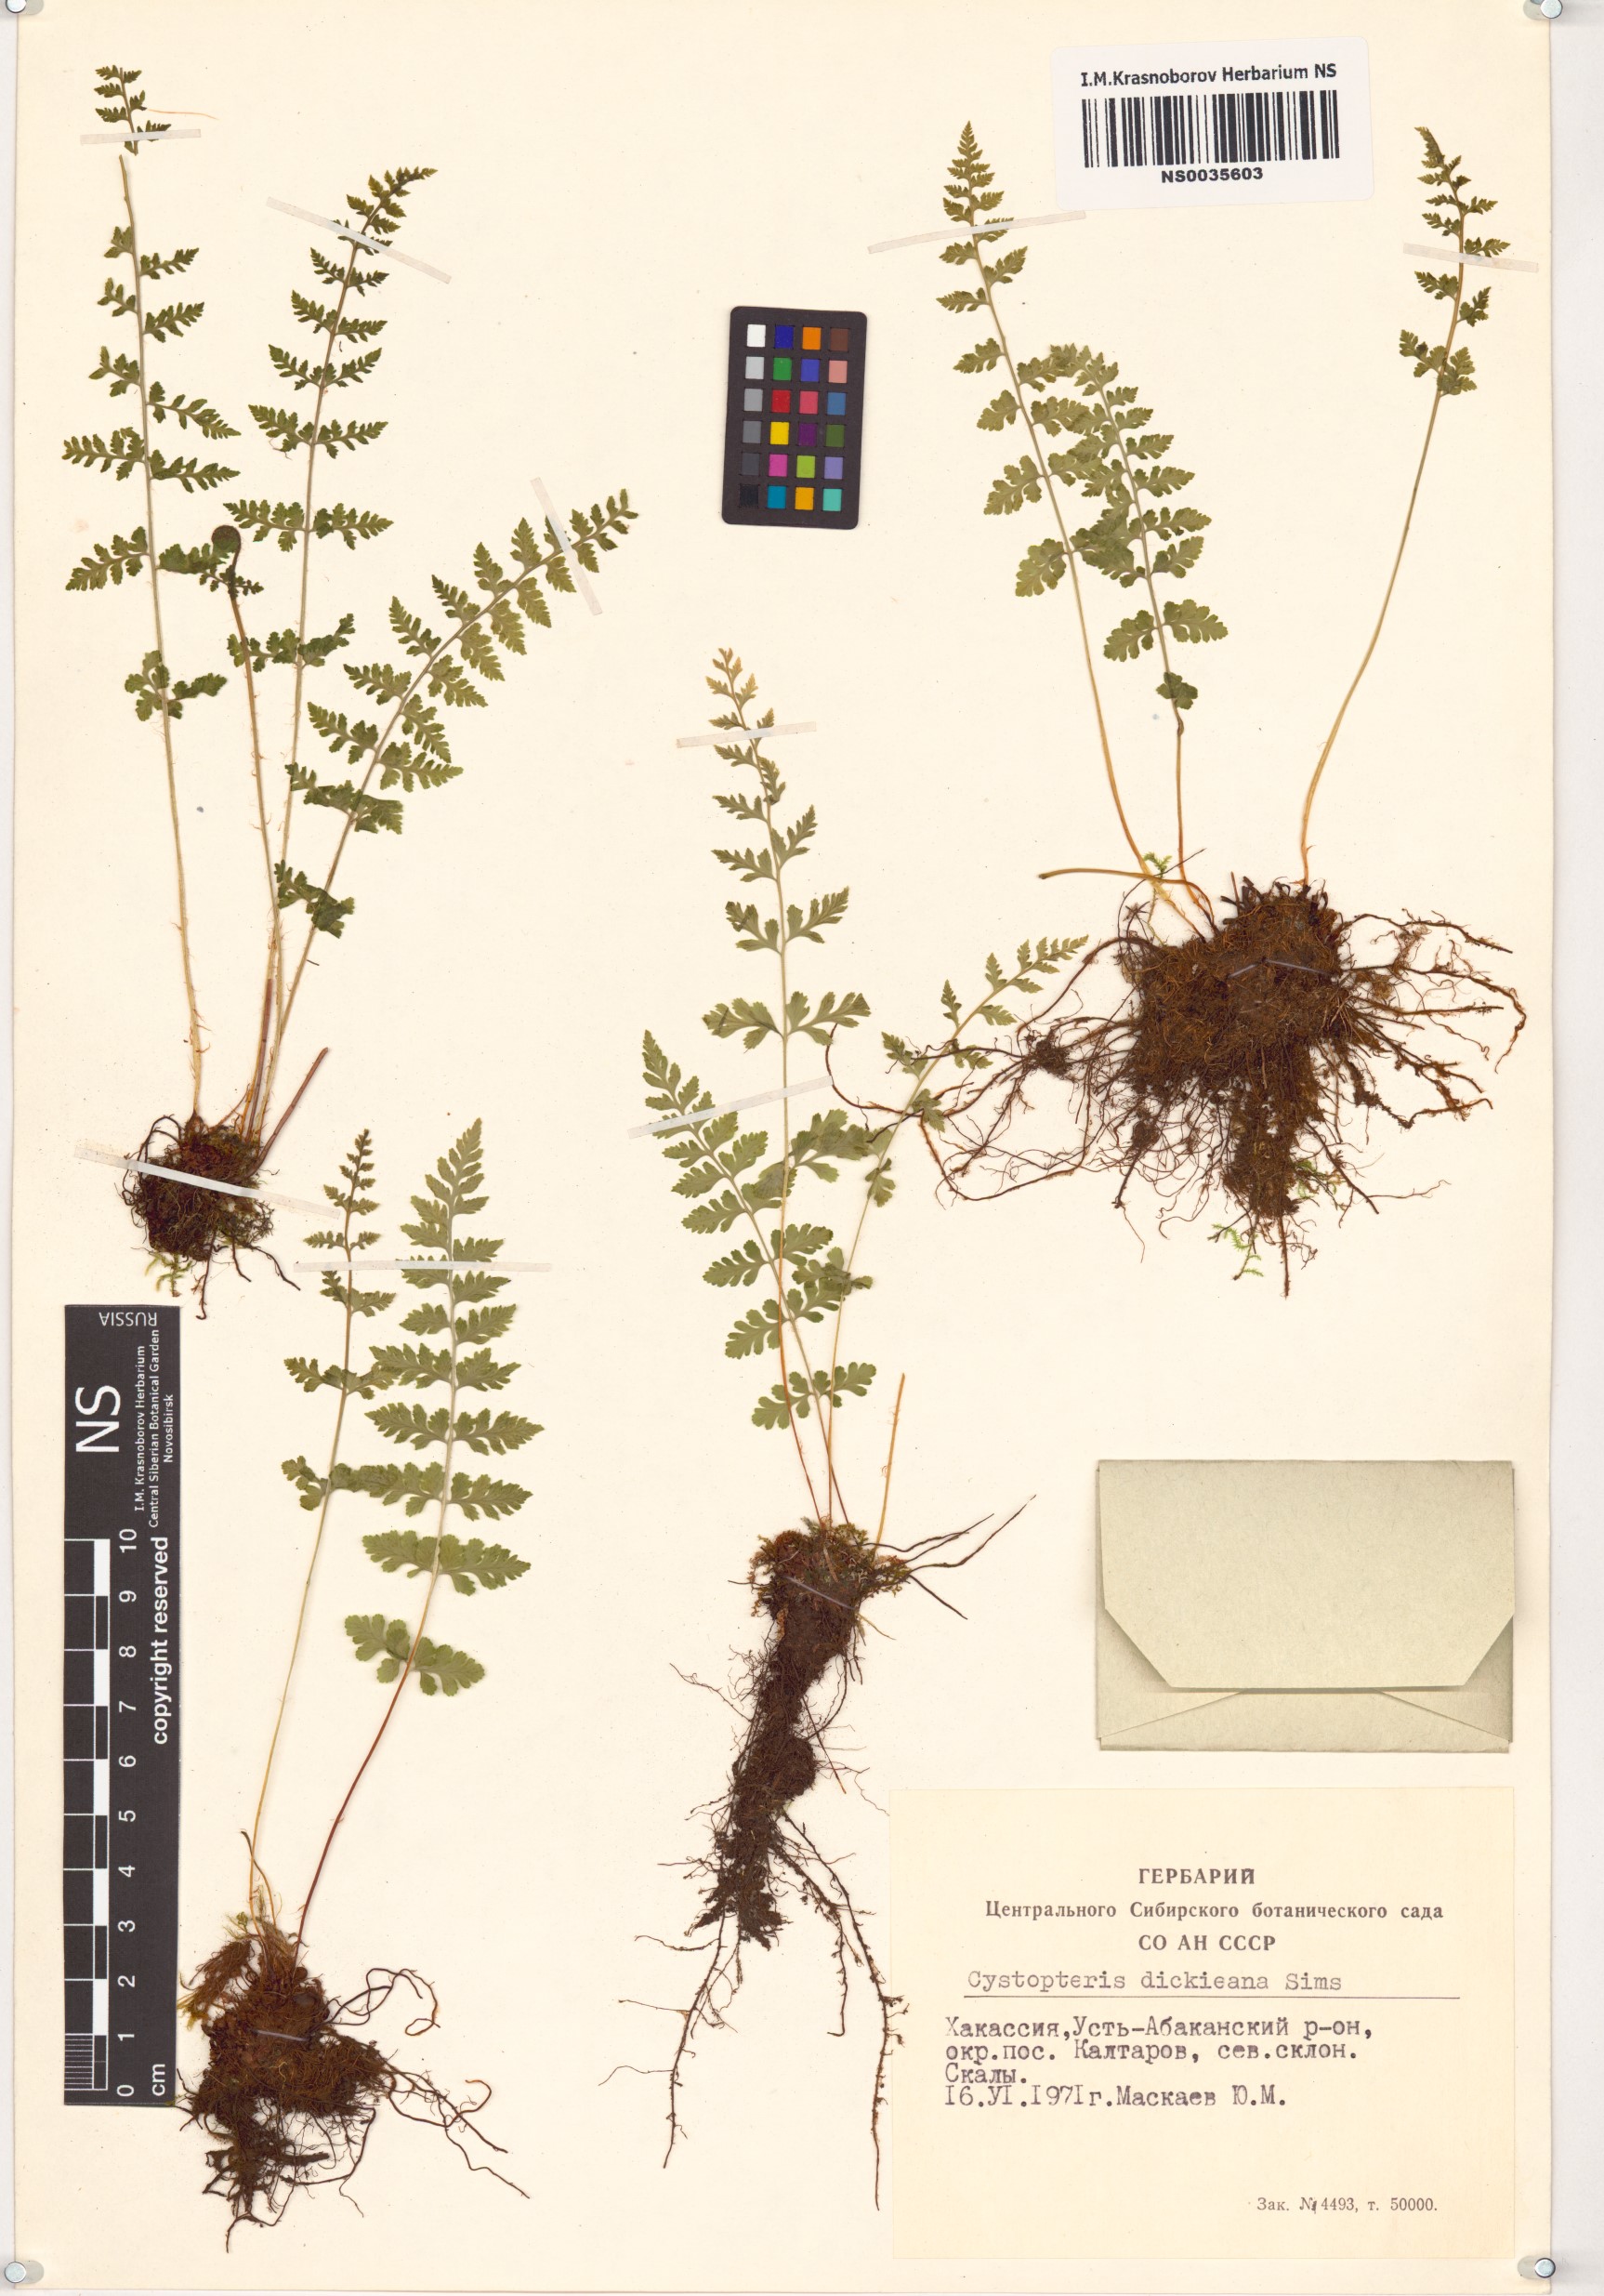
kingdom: Plantae
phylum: Tracheophyta
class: Polypodiopsida
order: Polypodiales
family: Cystopteridaceae
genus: Cystopteris
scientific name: Cystopteris dickieana
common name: Dickie's bladder-fern
